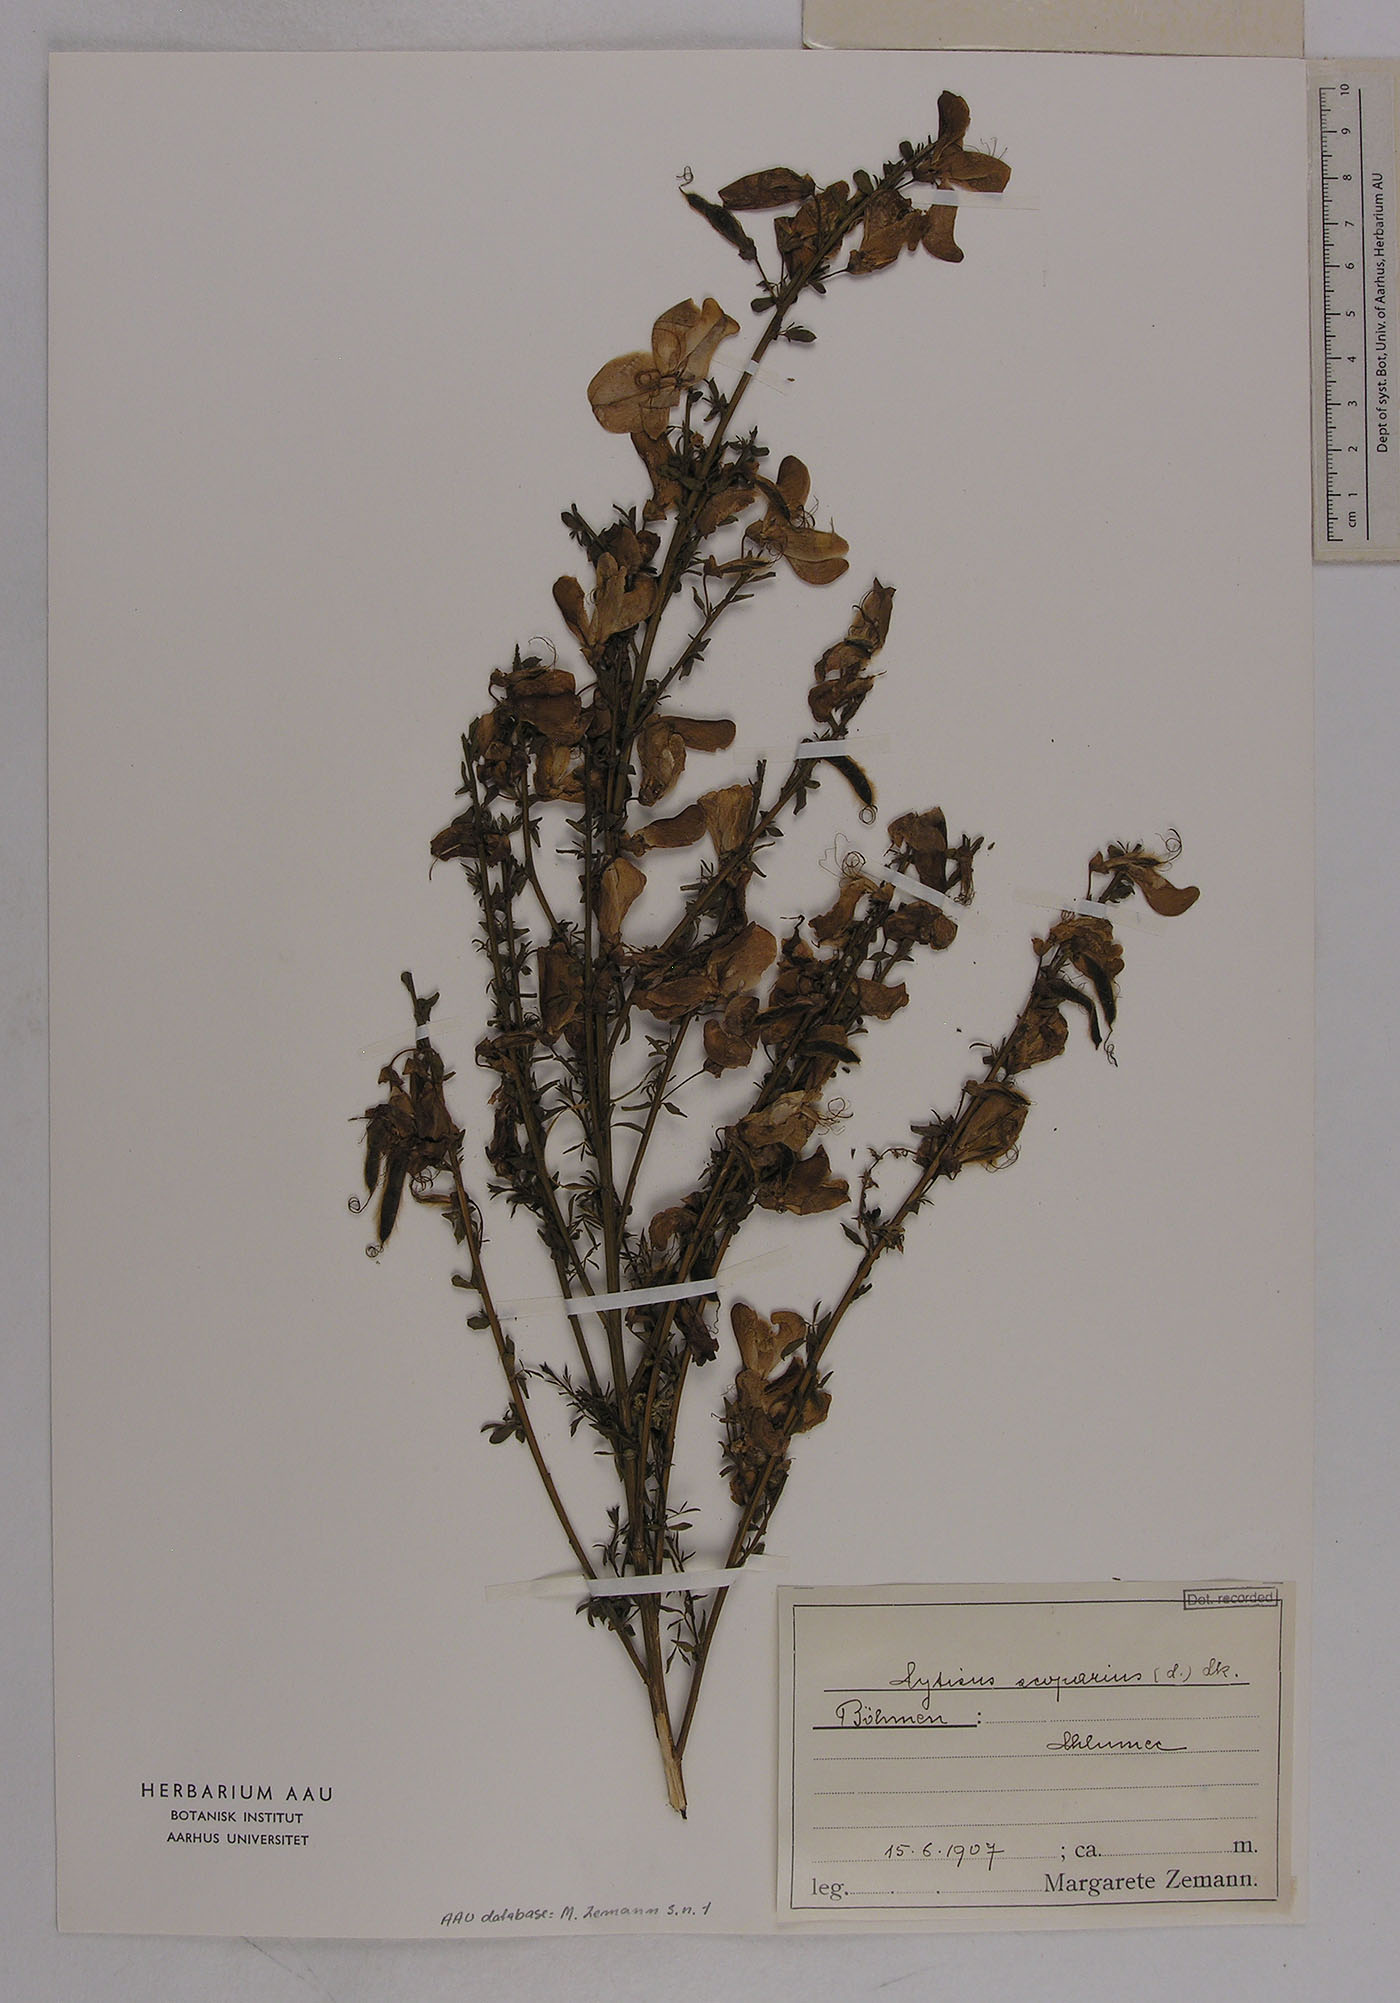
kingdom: Plantae
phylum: Tracheophyta
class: Magnoliopsida
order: Fabales
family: Fabaceae
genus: Cytisus
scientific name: Cytisus scoparius
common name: Scotch broom
